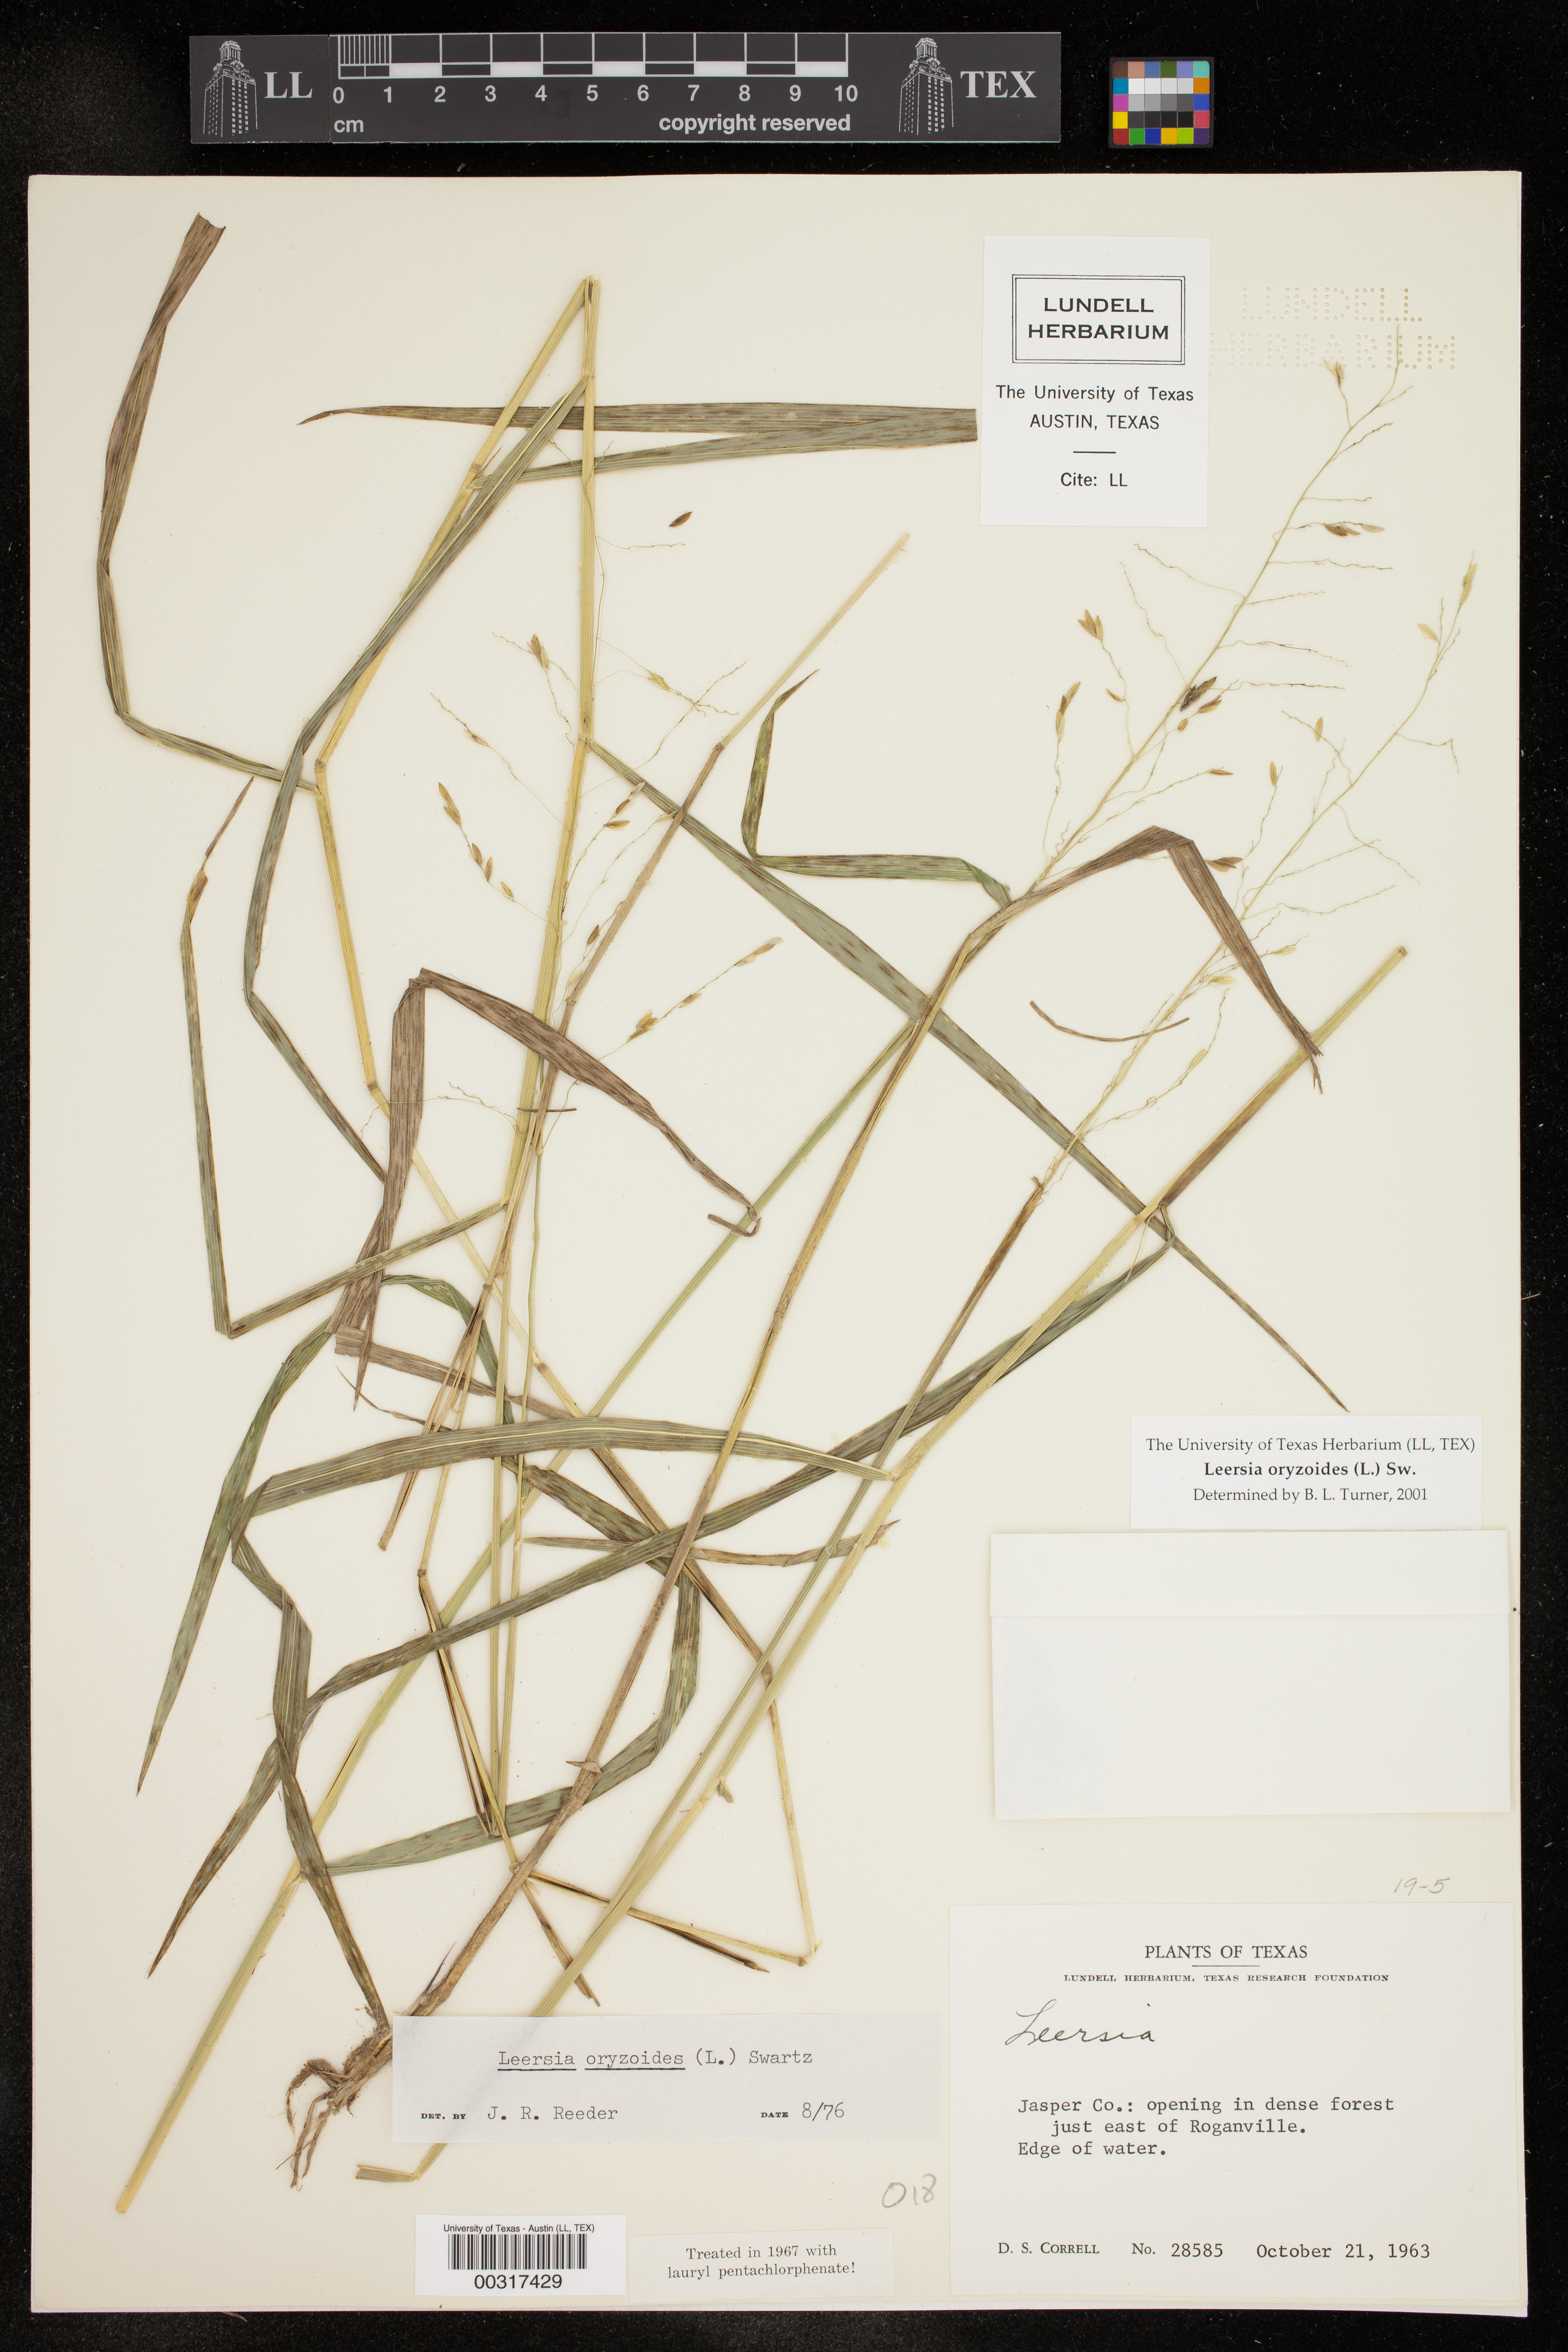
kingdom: Plantae
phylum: Tracheophyta
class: Liliopsida
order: Poales
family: Poaceae
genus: Leersia
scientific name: Leersia oryzoides
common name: Cut-grass
